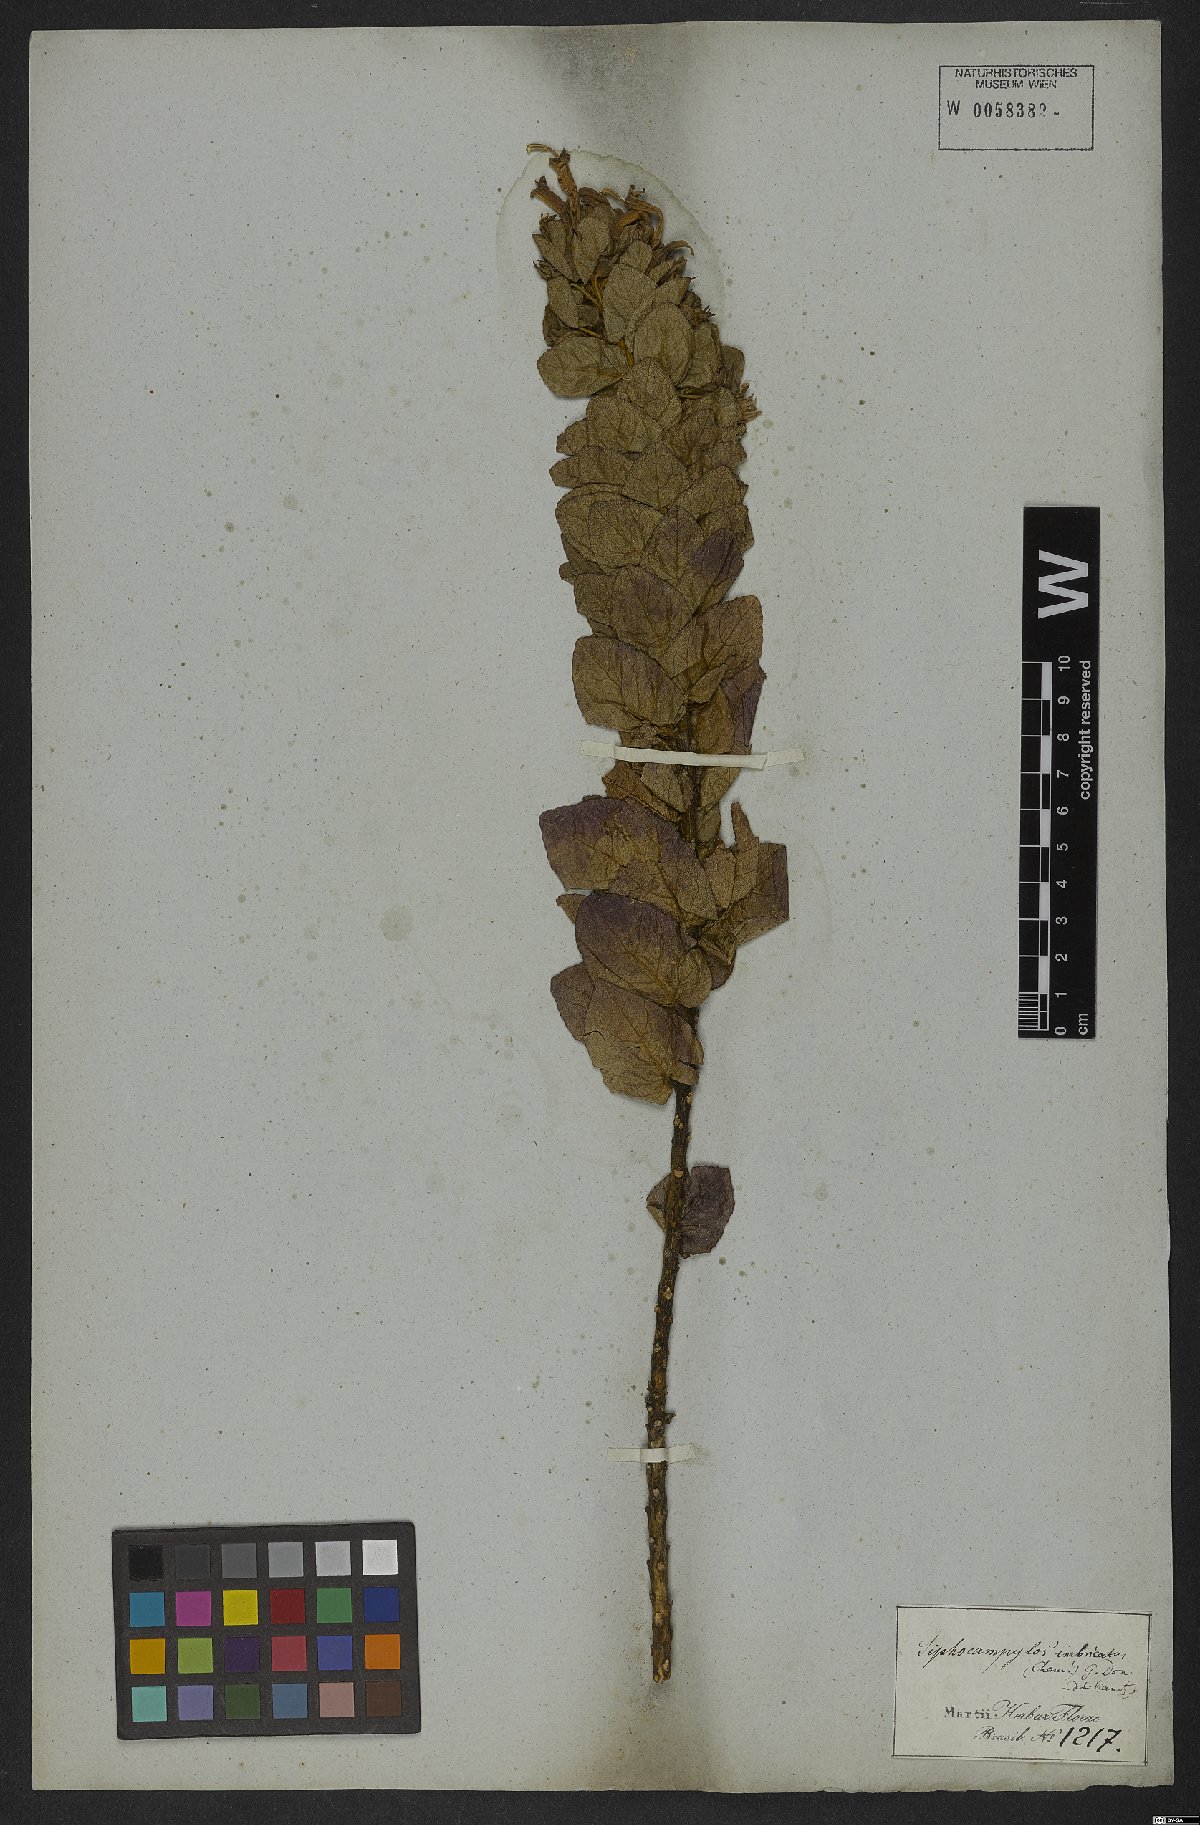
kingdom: Plantae
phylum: Tracheophyta
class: Magnoliopsida
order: Asterales
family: Campanulaceae
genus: Siphocampylus
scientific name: Siphocampylus imbricatus
